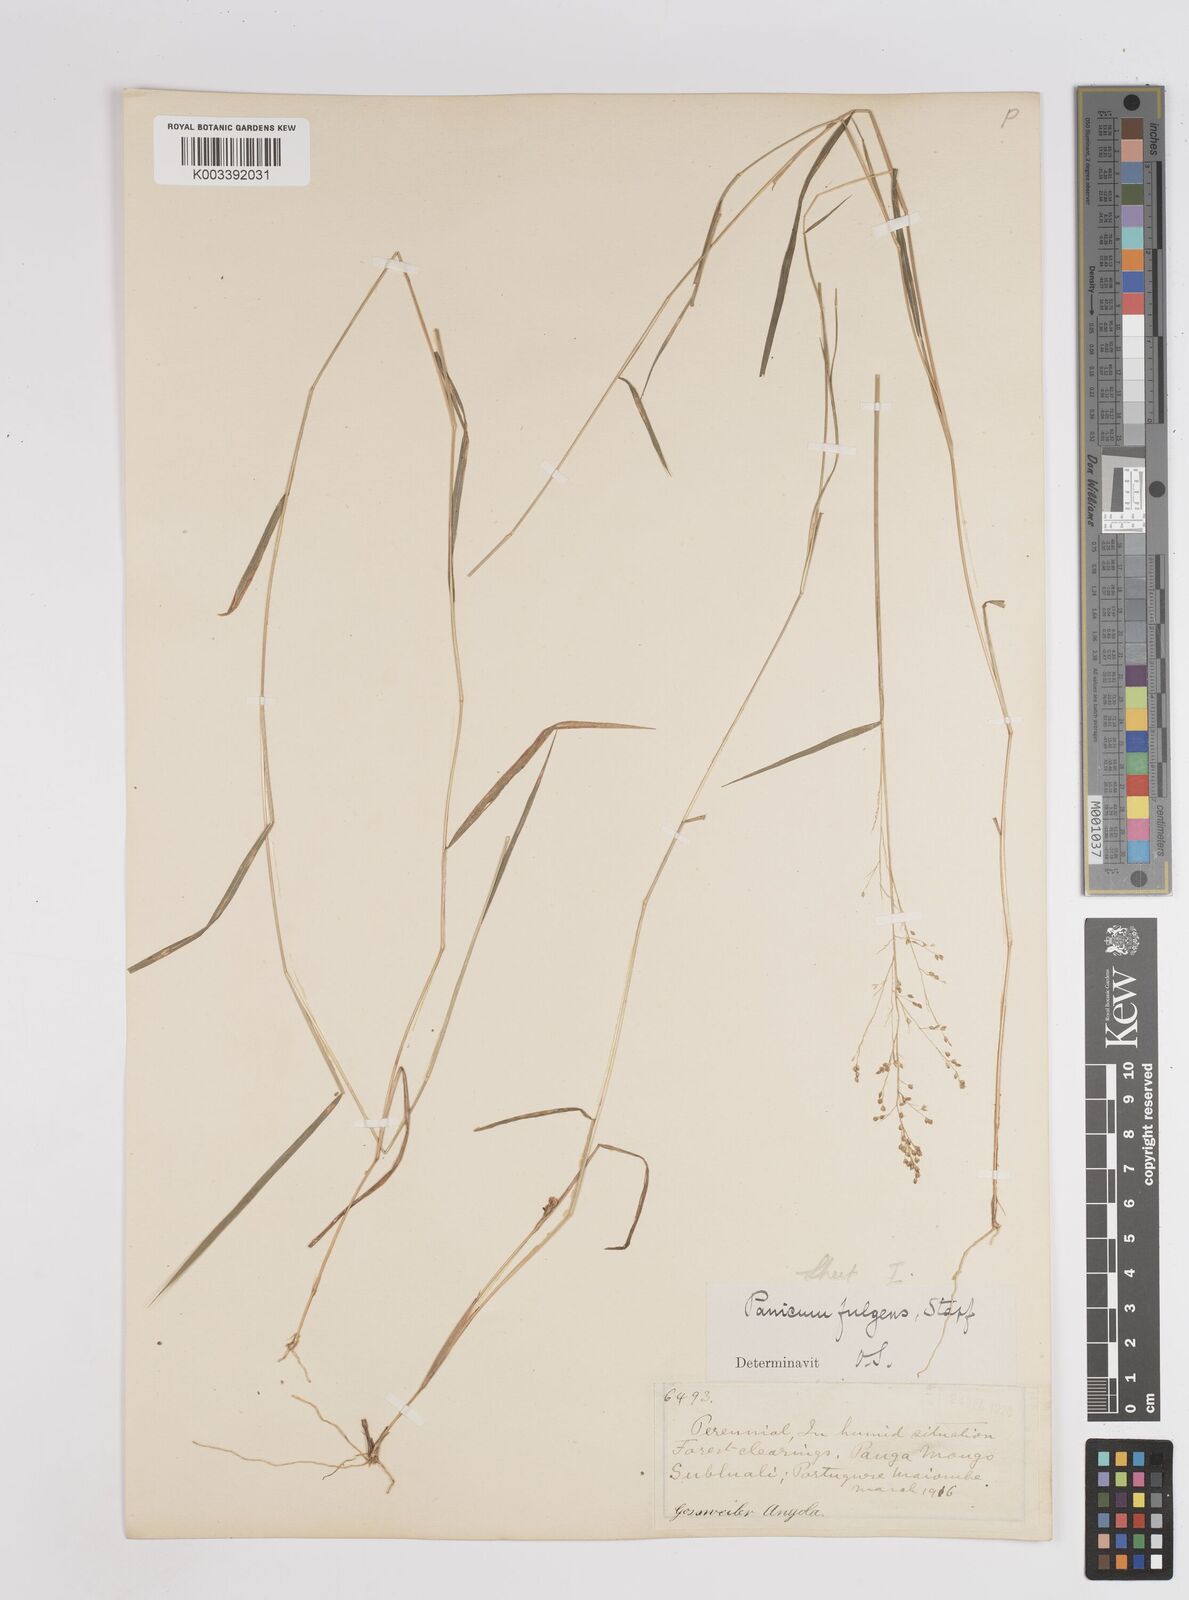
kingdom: Plantae
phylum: Tracheophyta
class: Liliopsida
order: Poales
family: Poaceae
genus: Trichanthecium
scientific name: Trichanthecium nervatum
